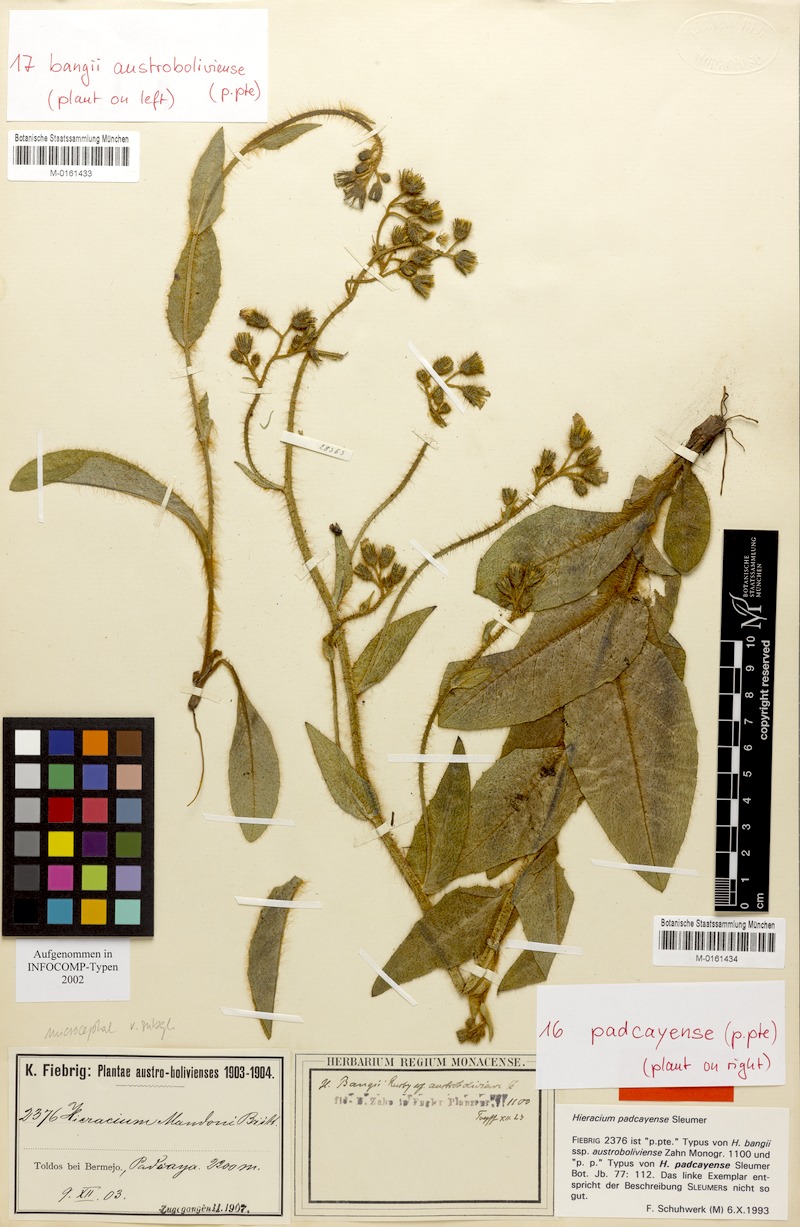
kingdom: Plantae
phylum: Tracheophyta
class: Magnoliopsida
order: Asterales
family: Asteraceae
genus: Hieracium
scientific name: Hieracium microcephalum
